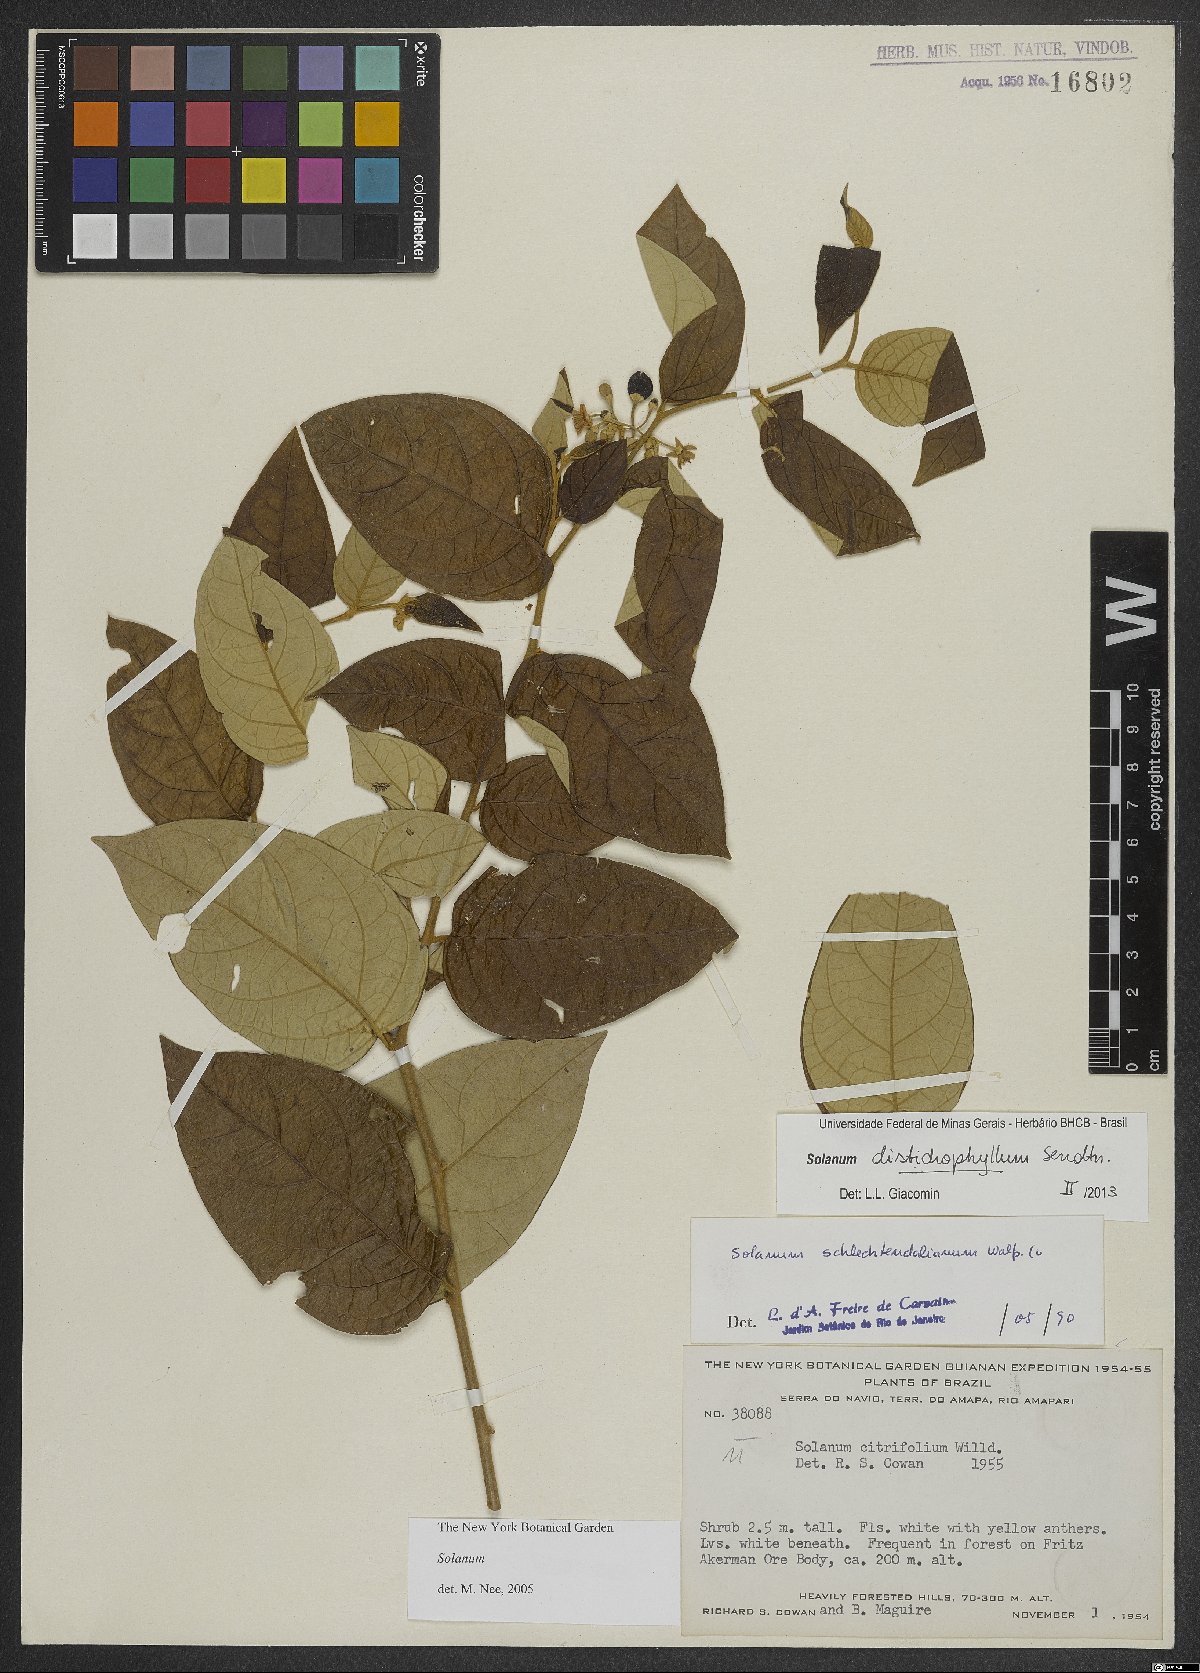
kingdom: Plantae
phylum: Tracheophyta
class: Magnoliopsida
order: Solanales
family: Solanaceae
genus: Solanum
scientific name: Solanum distichophyllum
